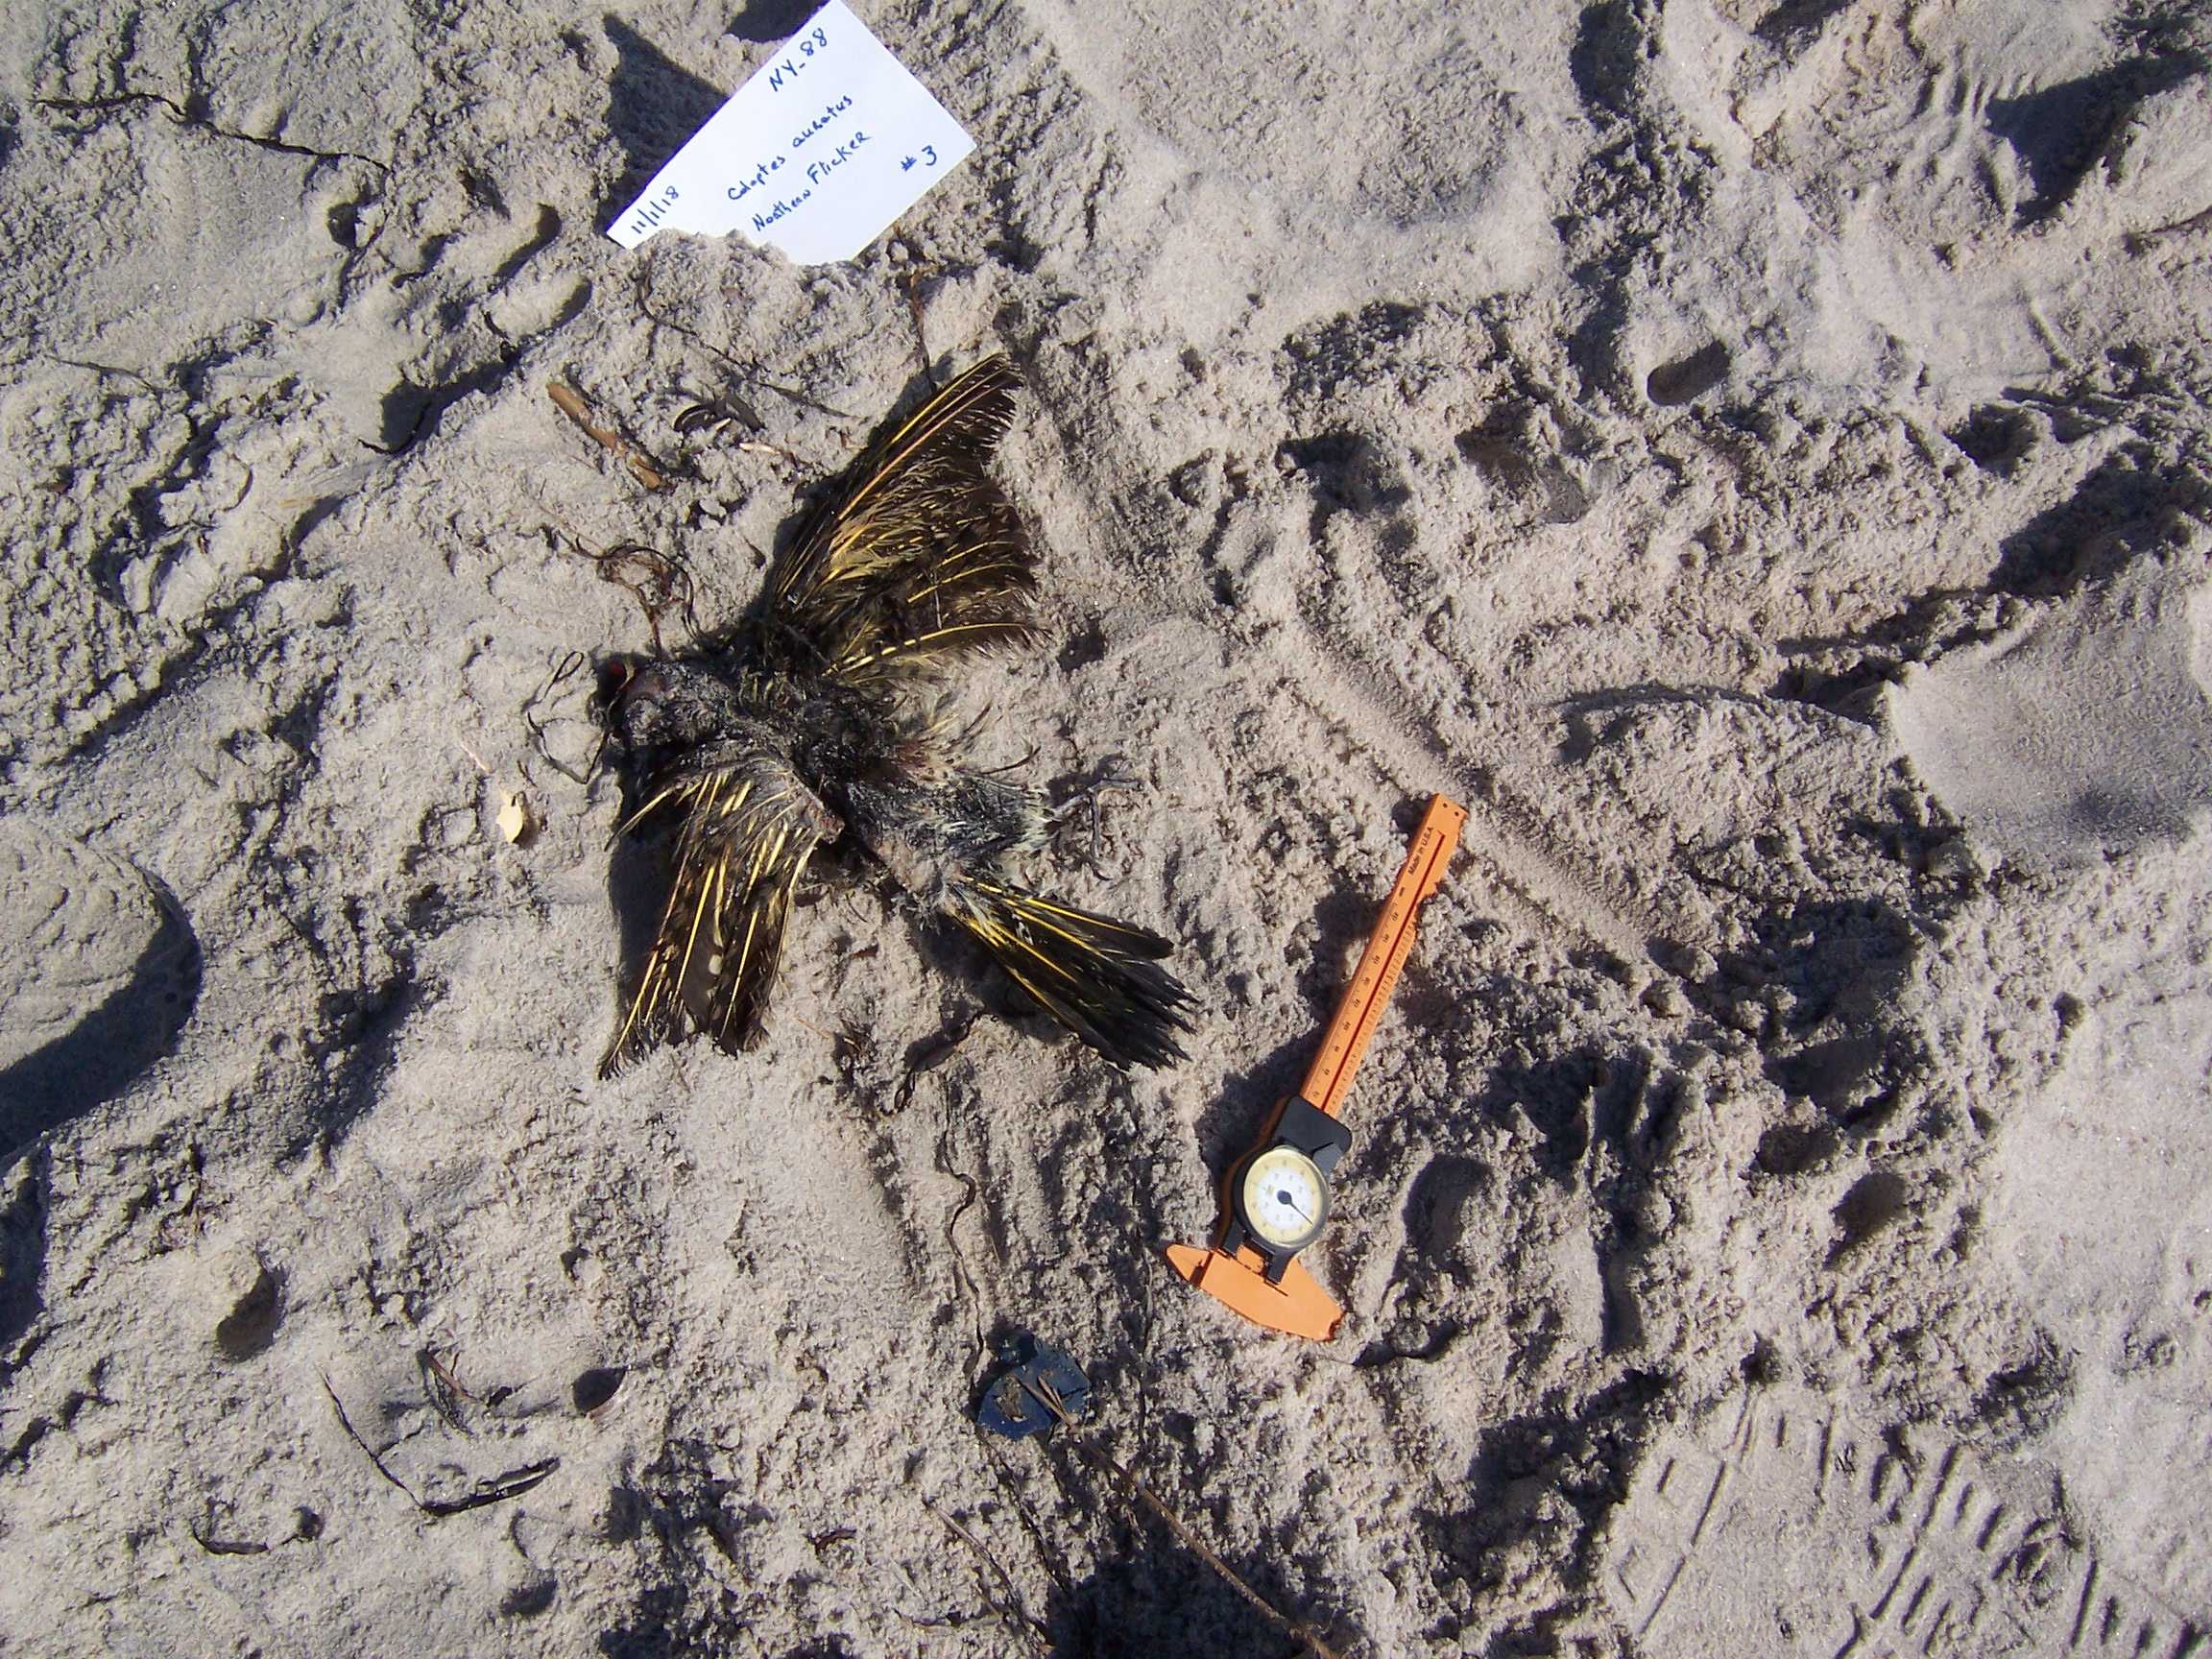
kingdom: Animalia
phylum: Chordata
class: Aves
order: Charadriiformes
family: Laridae
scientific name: Laridae
